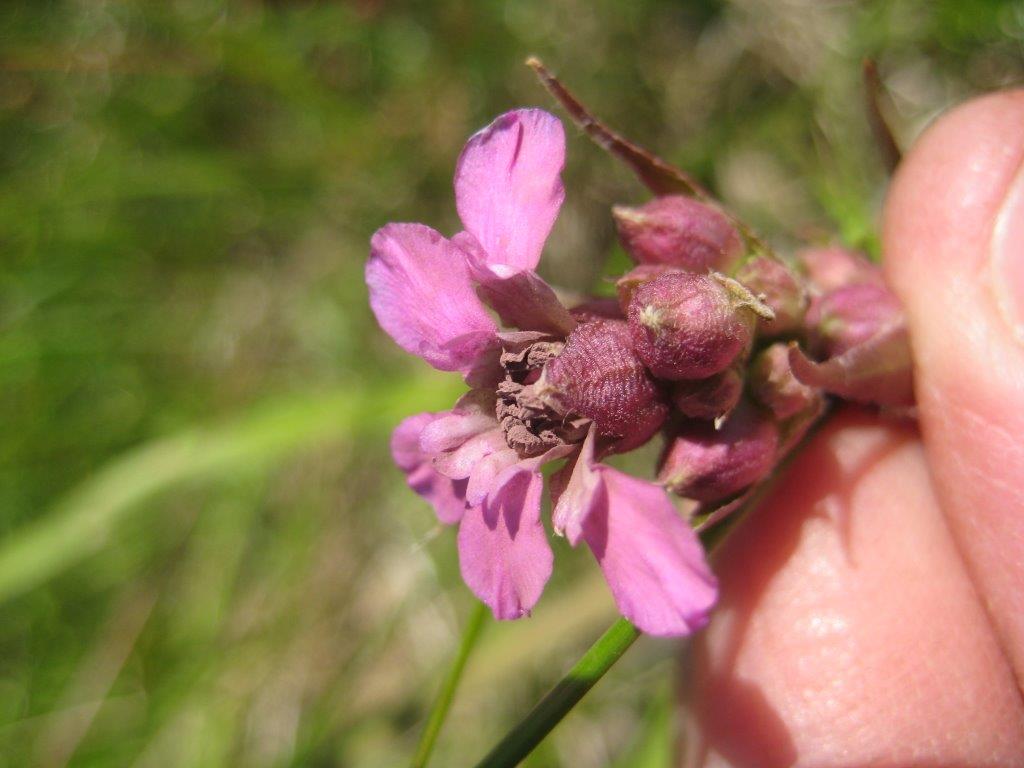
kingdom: Fungi
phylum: Basidiomycota
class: Microbotryomycetes
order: Microbotryales
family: Microbotryaceae
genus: Microbotryum
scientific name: Microbotryum silenes-inflatae
